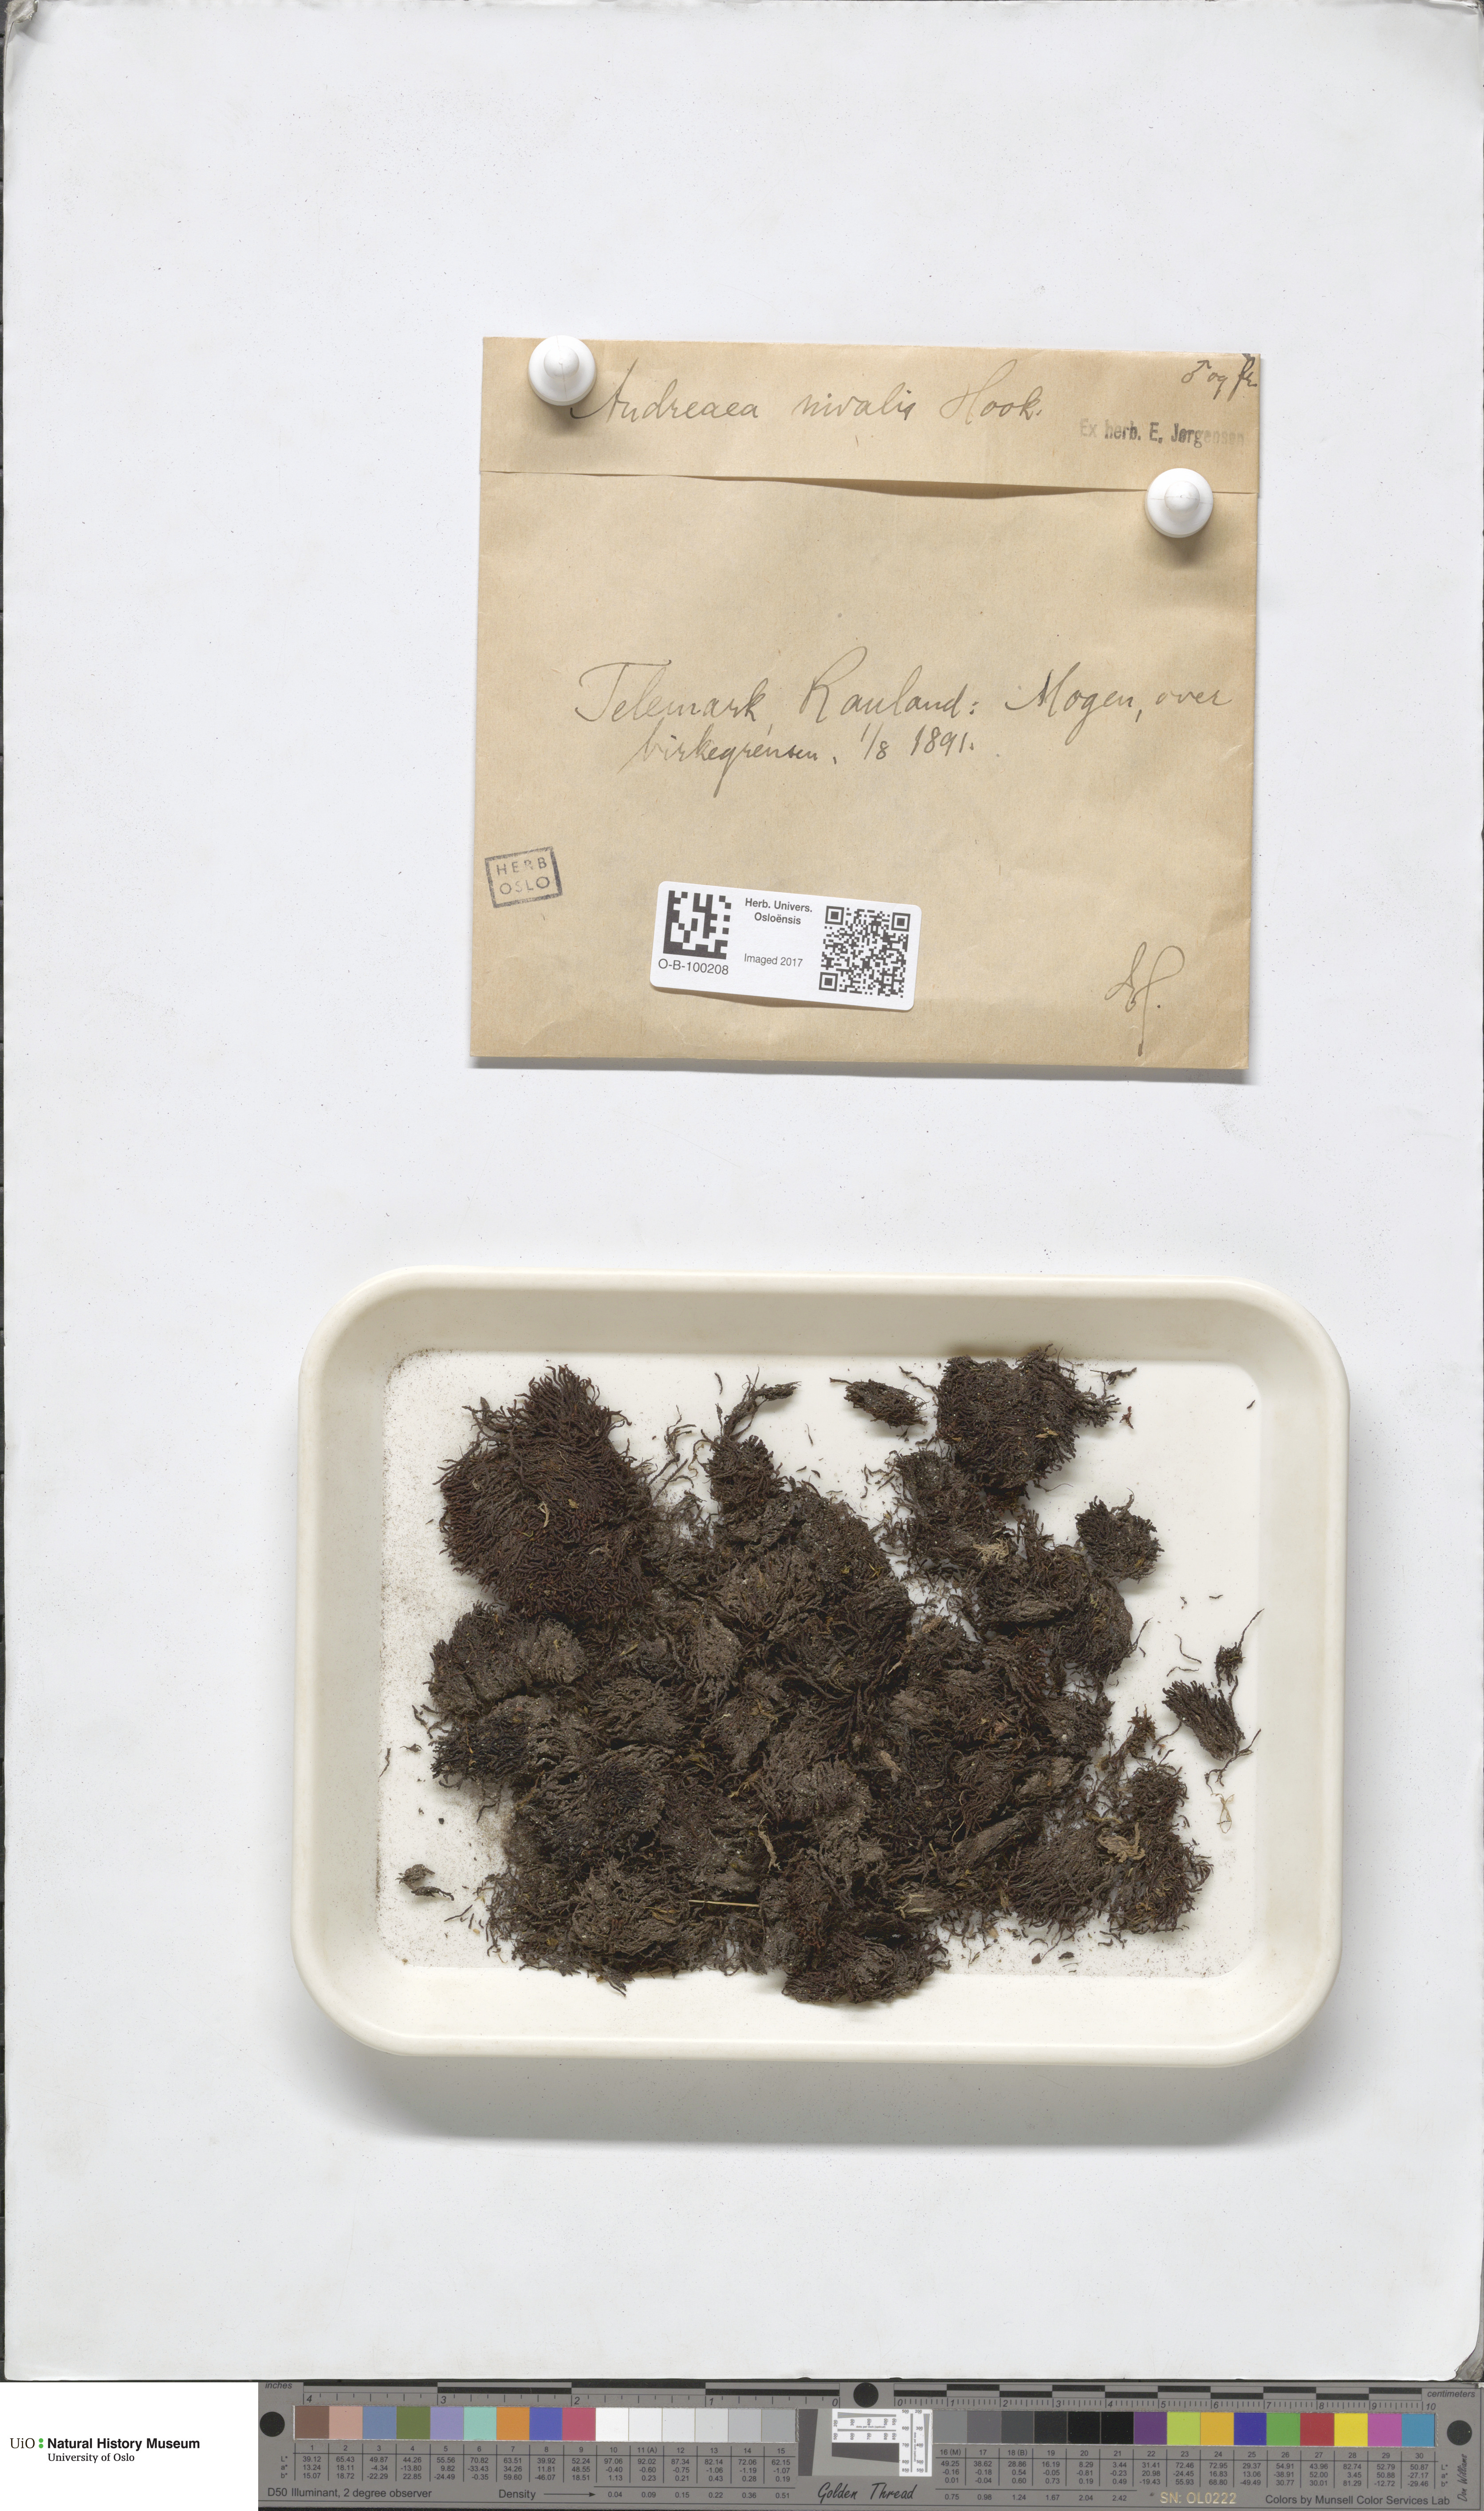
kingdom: Plantae
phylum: Bryophyta
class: Andreaeopsida
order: Andreaeales
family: Andreaeaceae
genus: Andreaea
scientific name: Andreaea nivalis
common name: Snow rock moss
